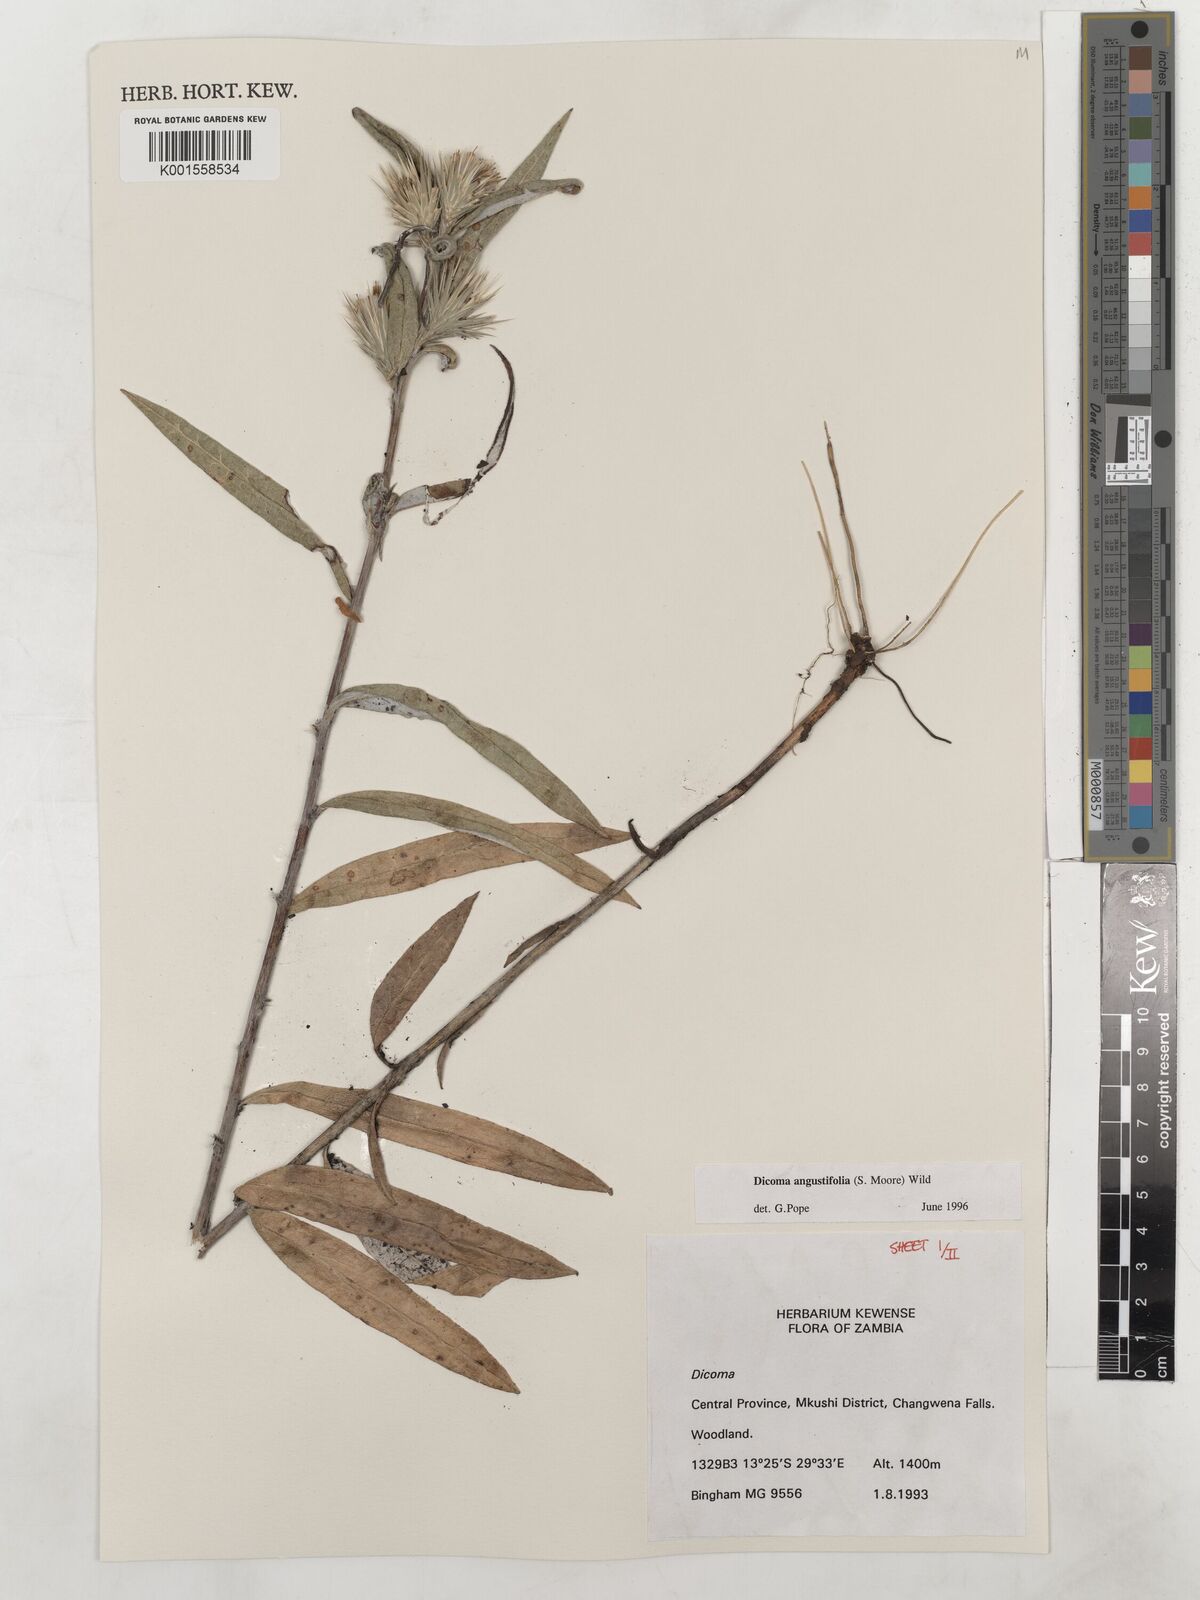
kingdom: Plantae
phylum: Tracheophyta
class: Magnoliopsida
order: Asterales
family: Asteraceae
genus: Macledium
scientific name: Macledium poggei
